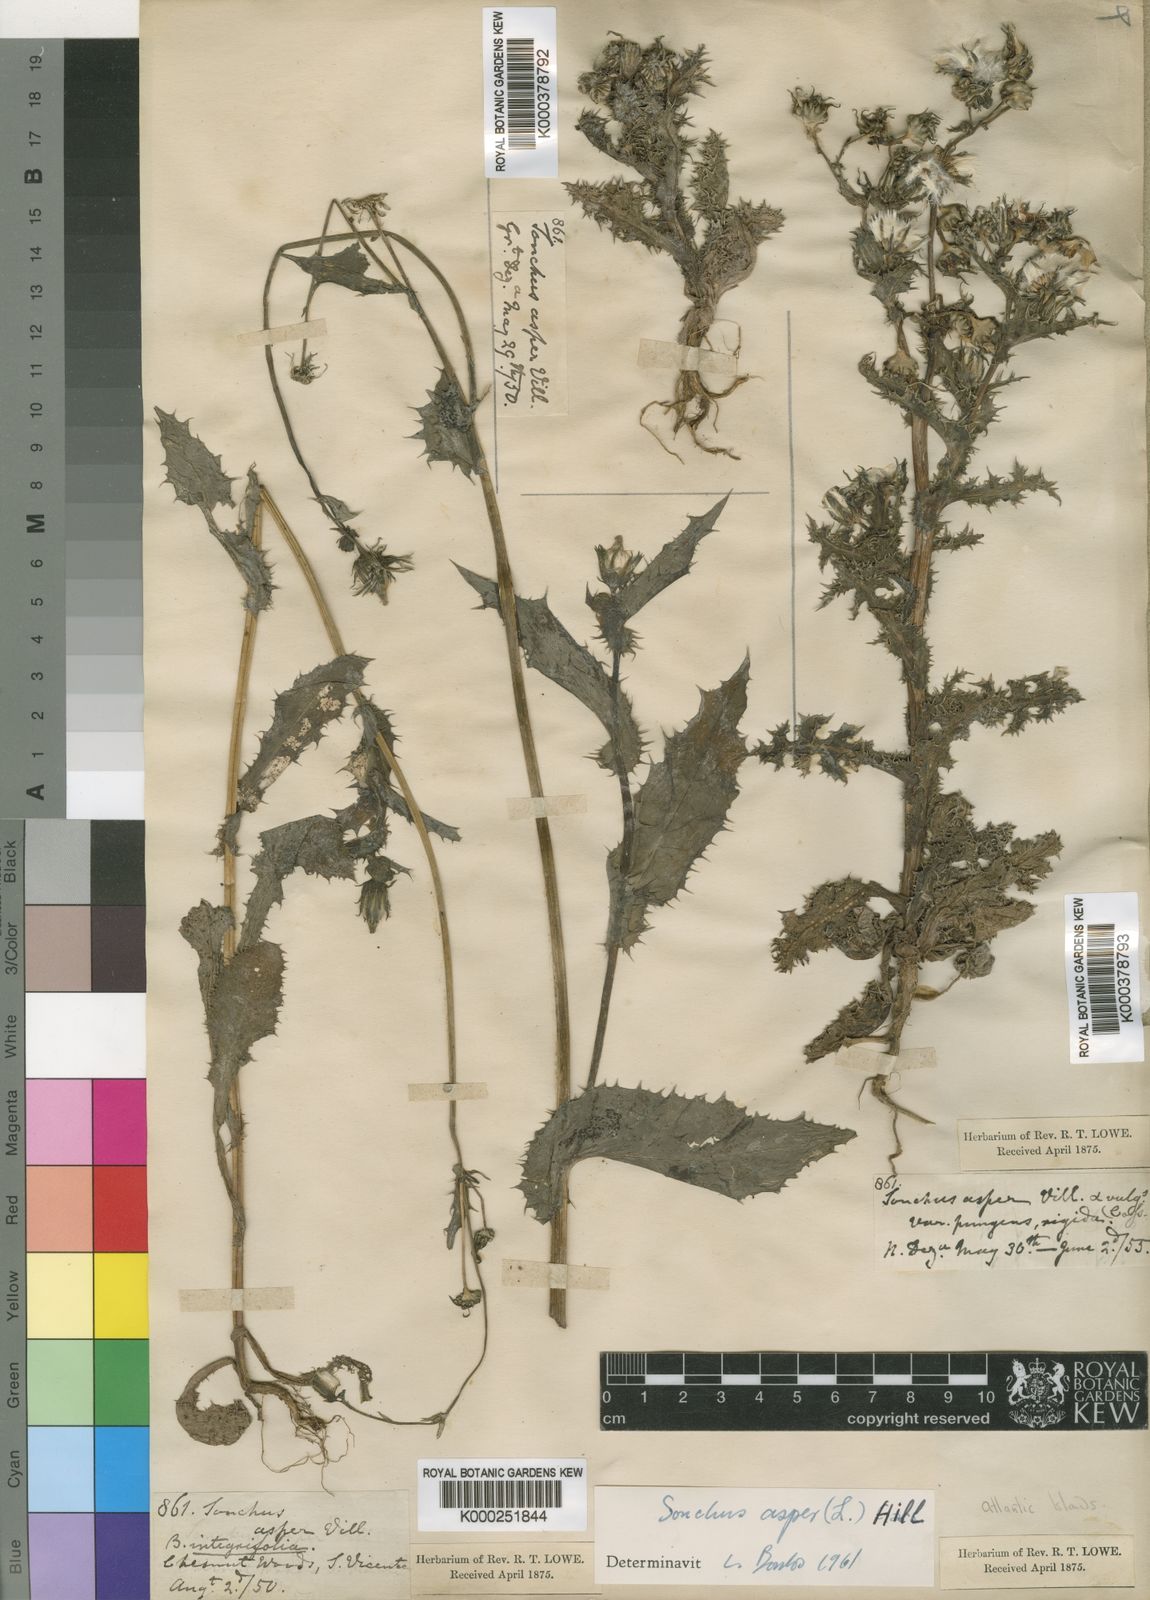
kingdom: Plantae
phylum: Tracheophyta
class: Magnoliopsida
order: Asterales
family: Asteraceae
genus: Sonchus
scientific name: Sonchus asper
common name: Prickly sow-thistle
